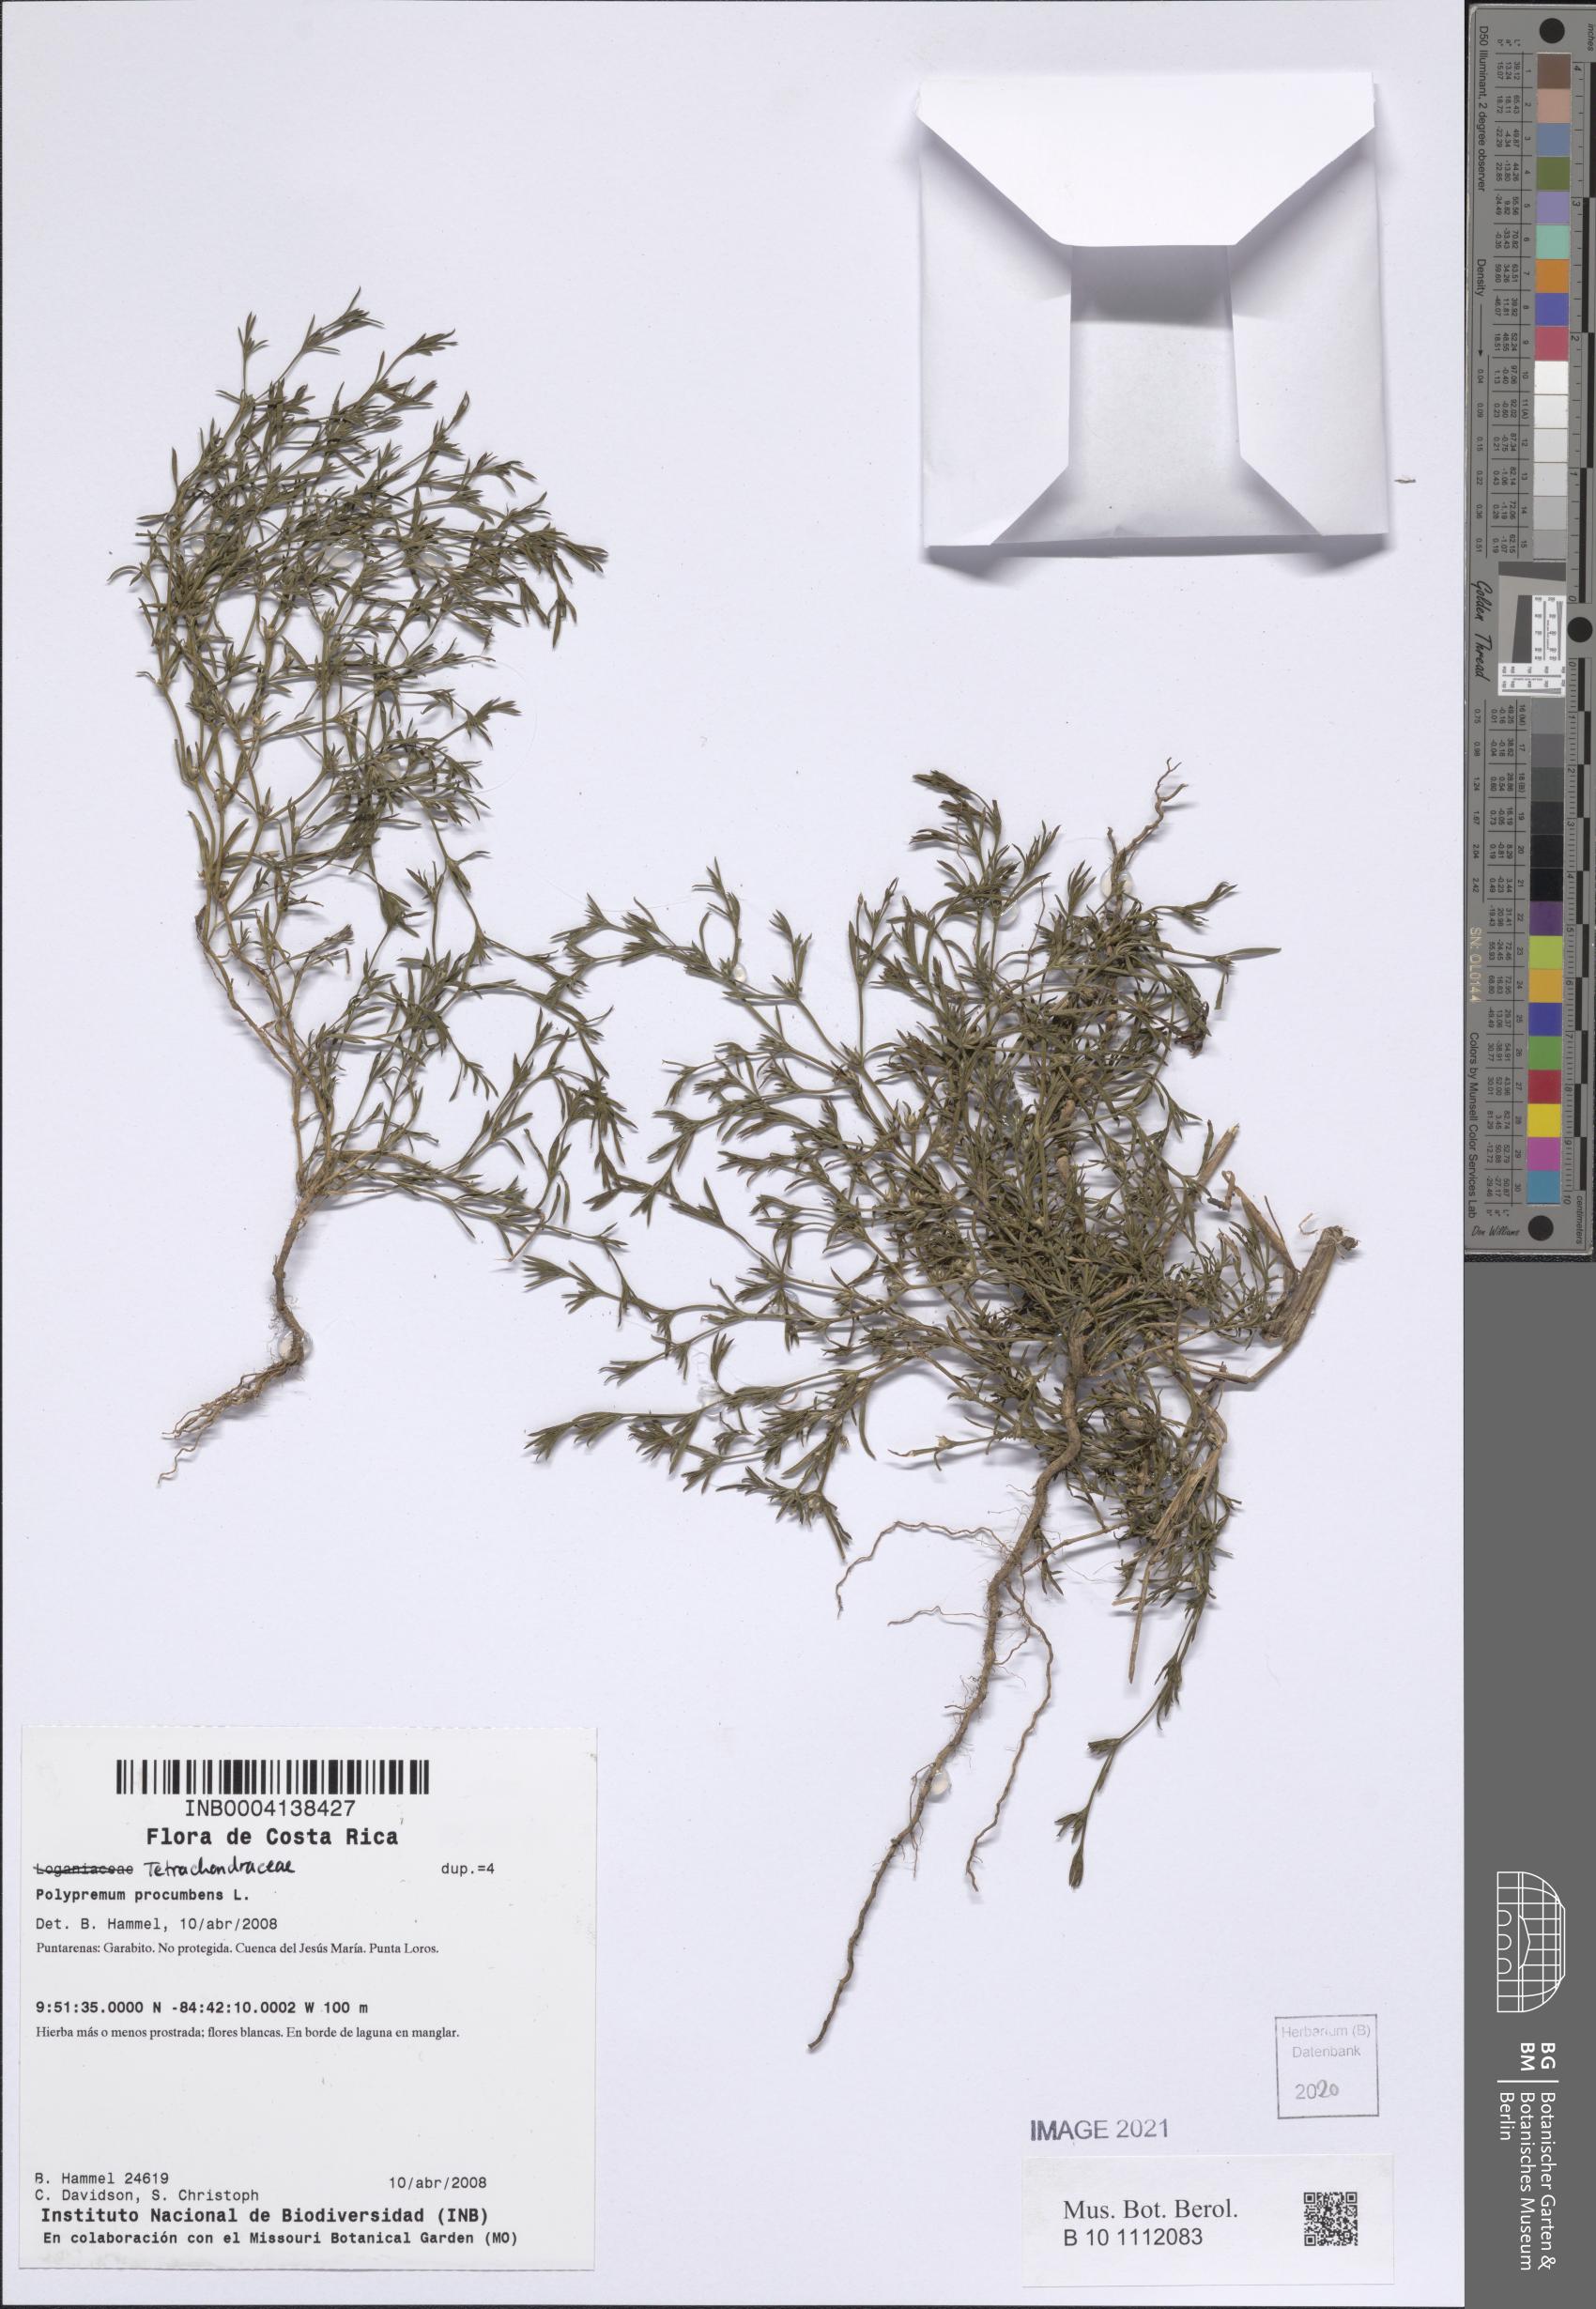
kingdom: Plantae
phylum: Tracheophyta
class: Magnoliopsida
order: Lamiales
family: Tetrachondraceae
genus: Polypremum
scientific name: Polypremum procumbens
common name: Juniper-leaf
